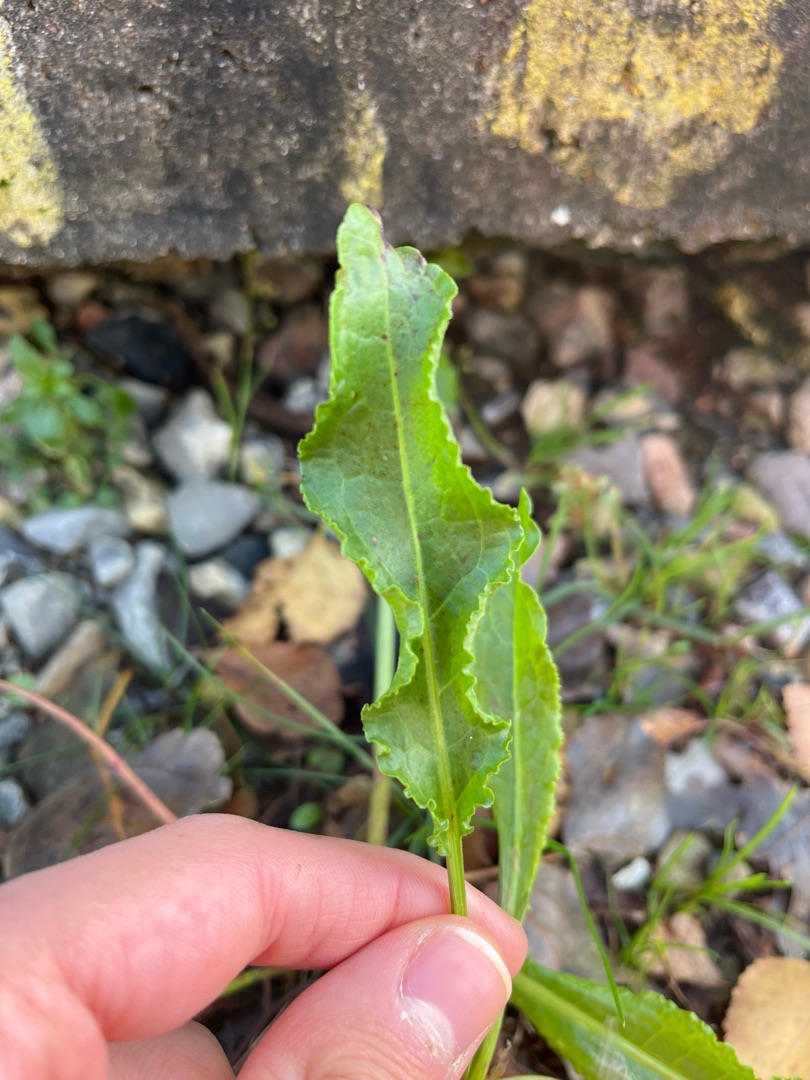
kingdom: Plantae
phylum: Tracheophyta
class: Magnoliopsida
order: Caryophyllales
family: Polygonaceae
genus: Rumex
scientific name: Rumex crispus
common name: Kruset skræppe
